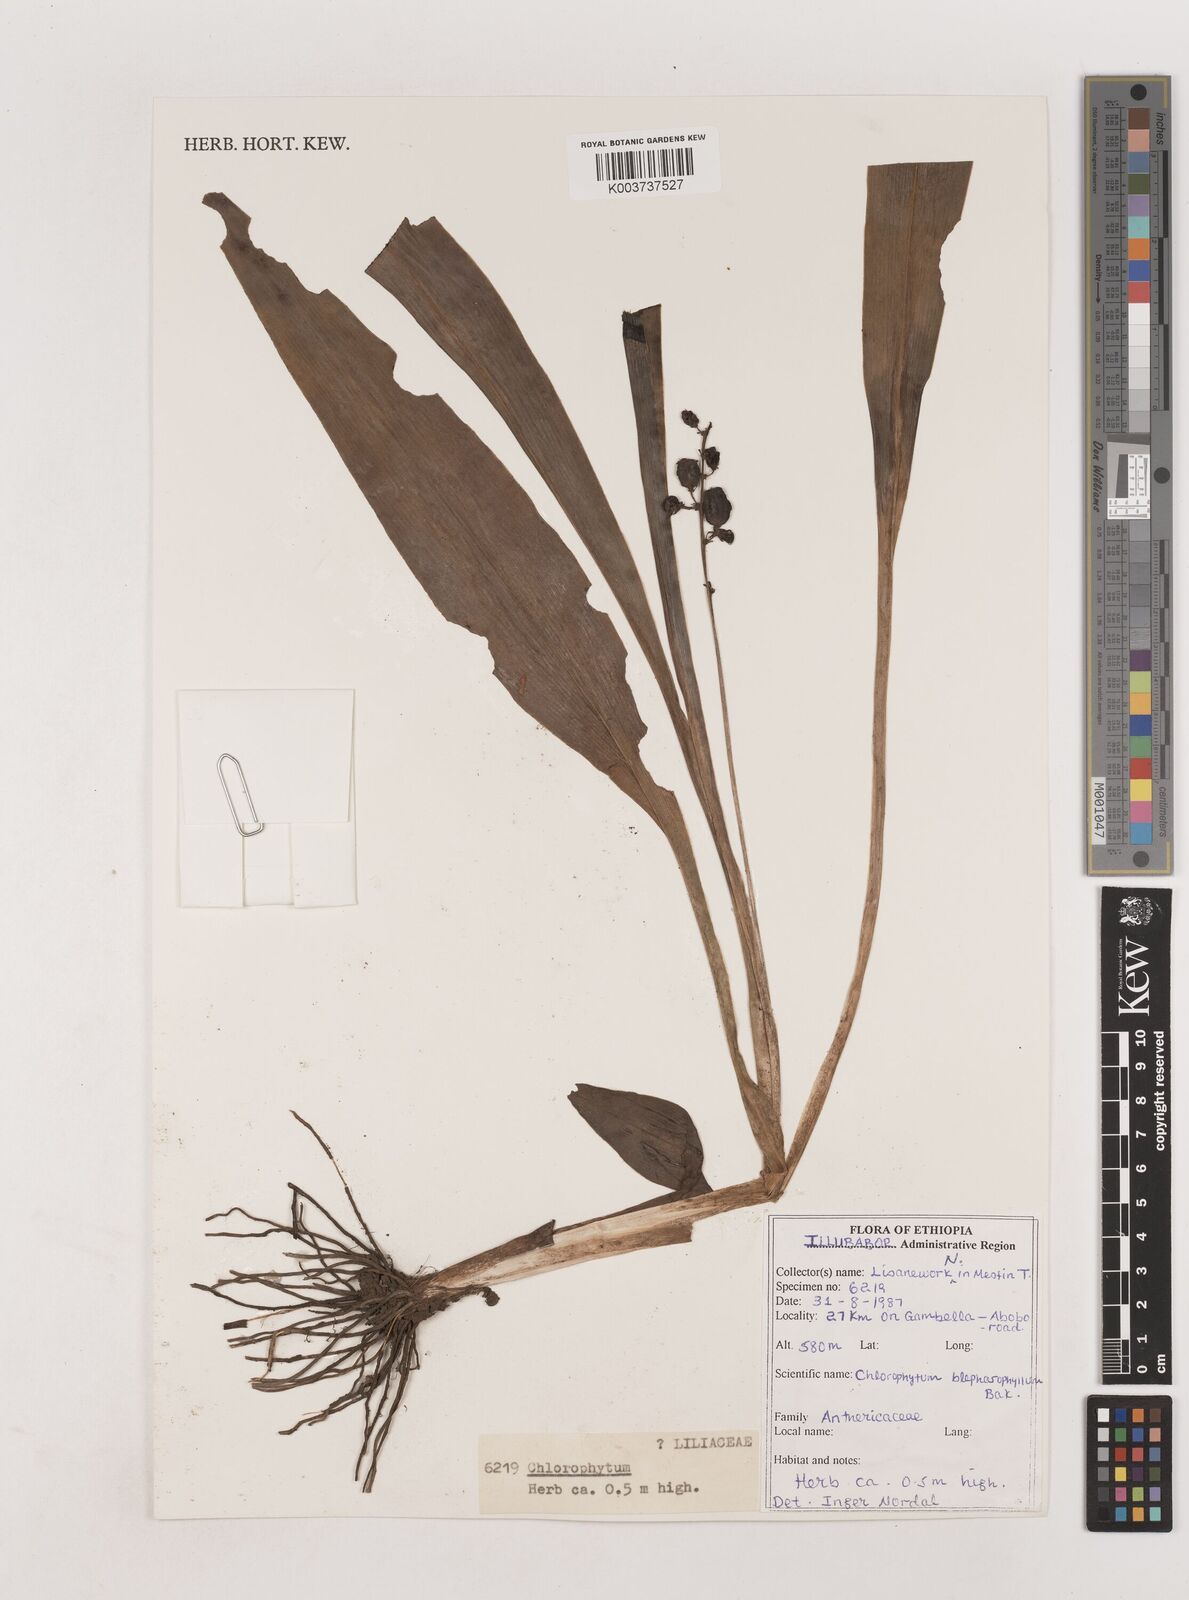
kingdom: Plantae
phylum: Tracheophyta
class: Liliopsida
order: Asparagales
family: Asparagaceae
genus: Chlorophytum
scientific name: Chlorophytum blepharophyllum
